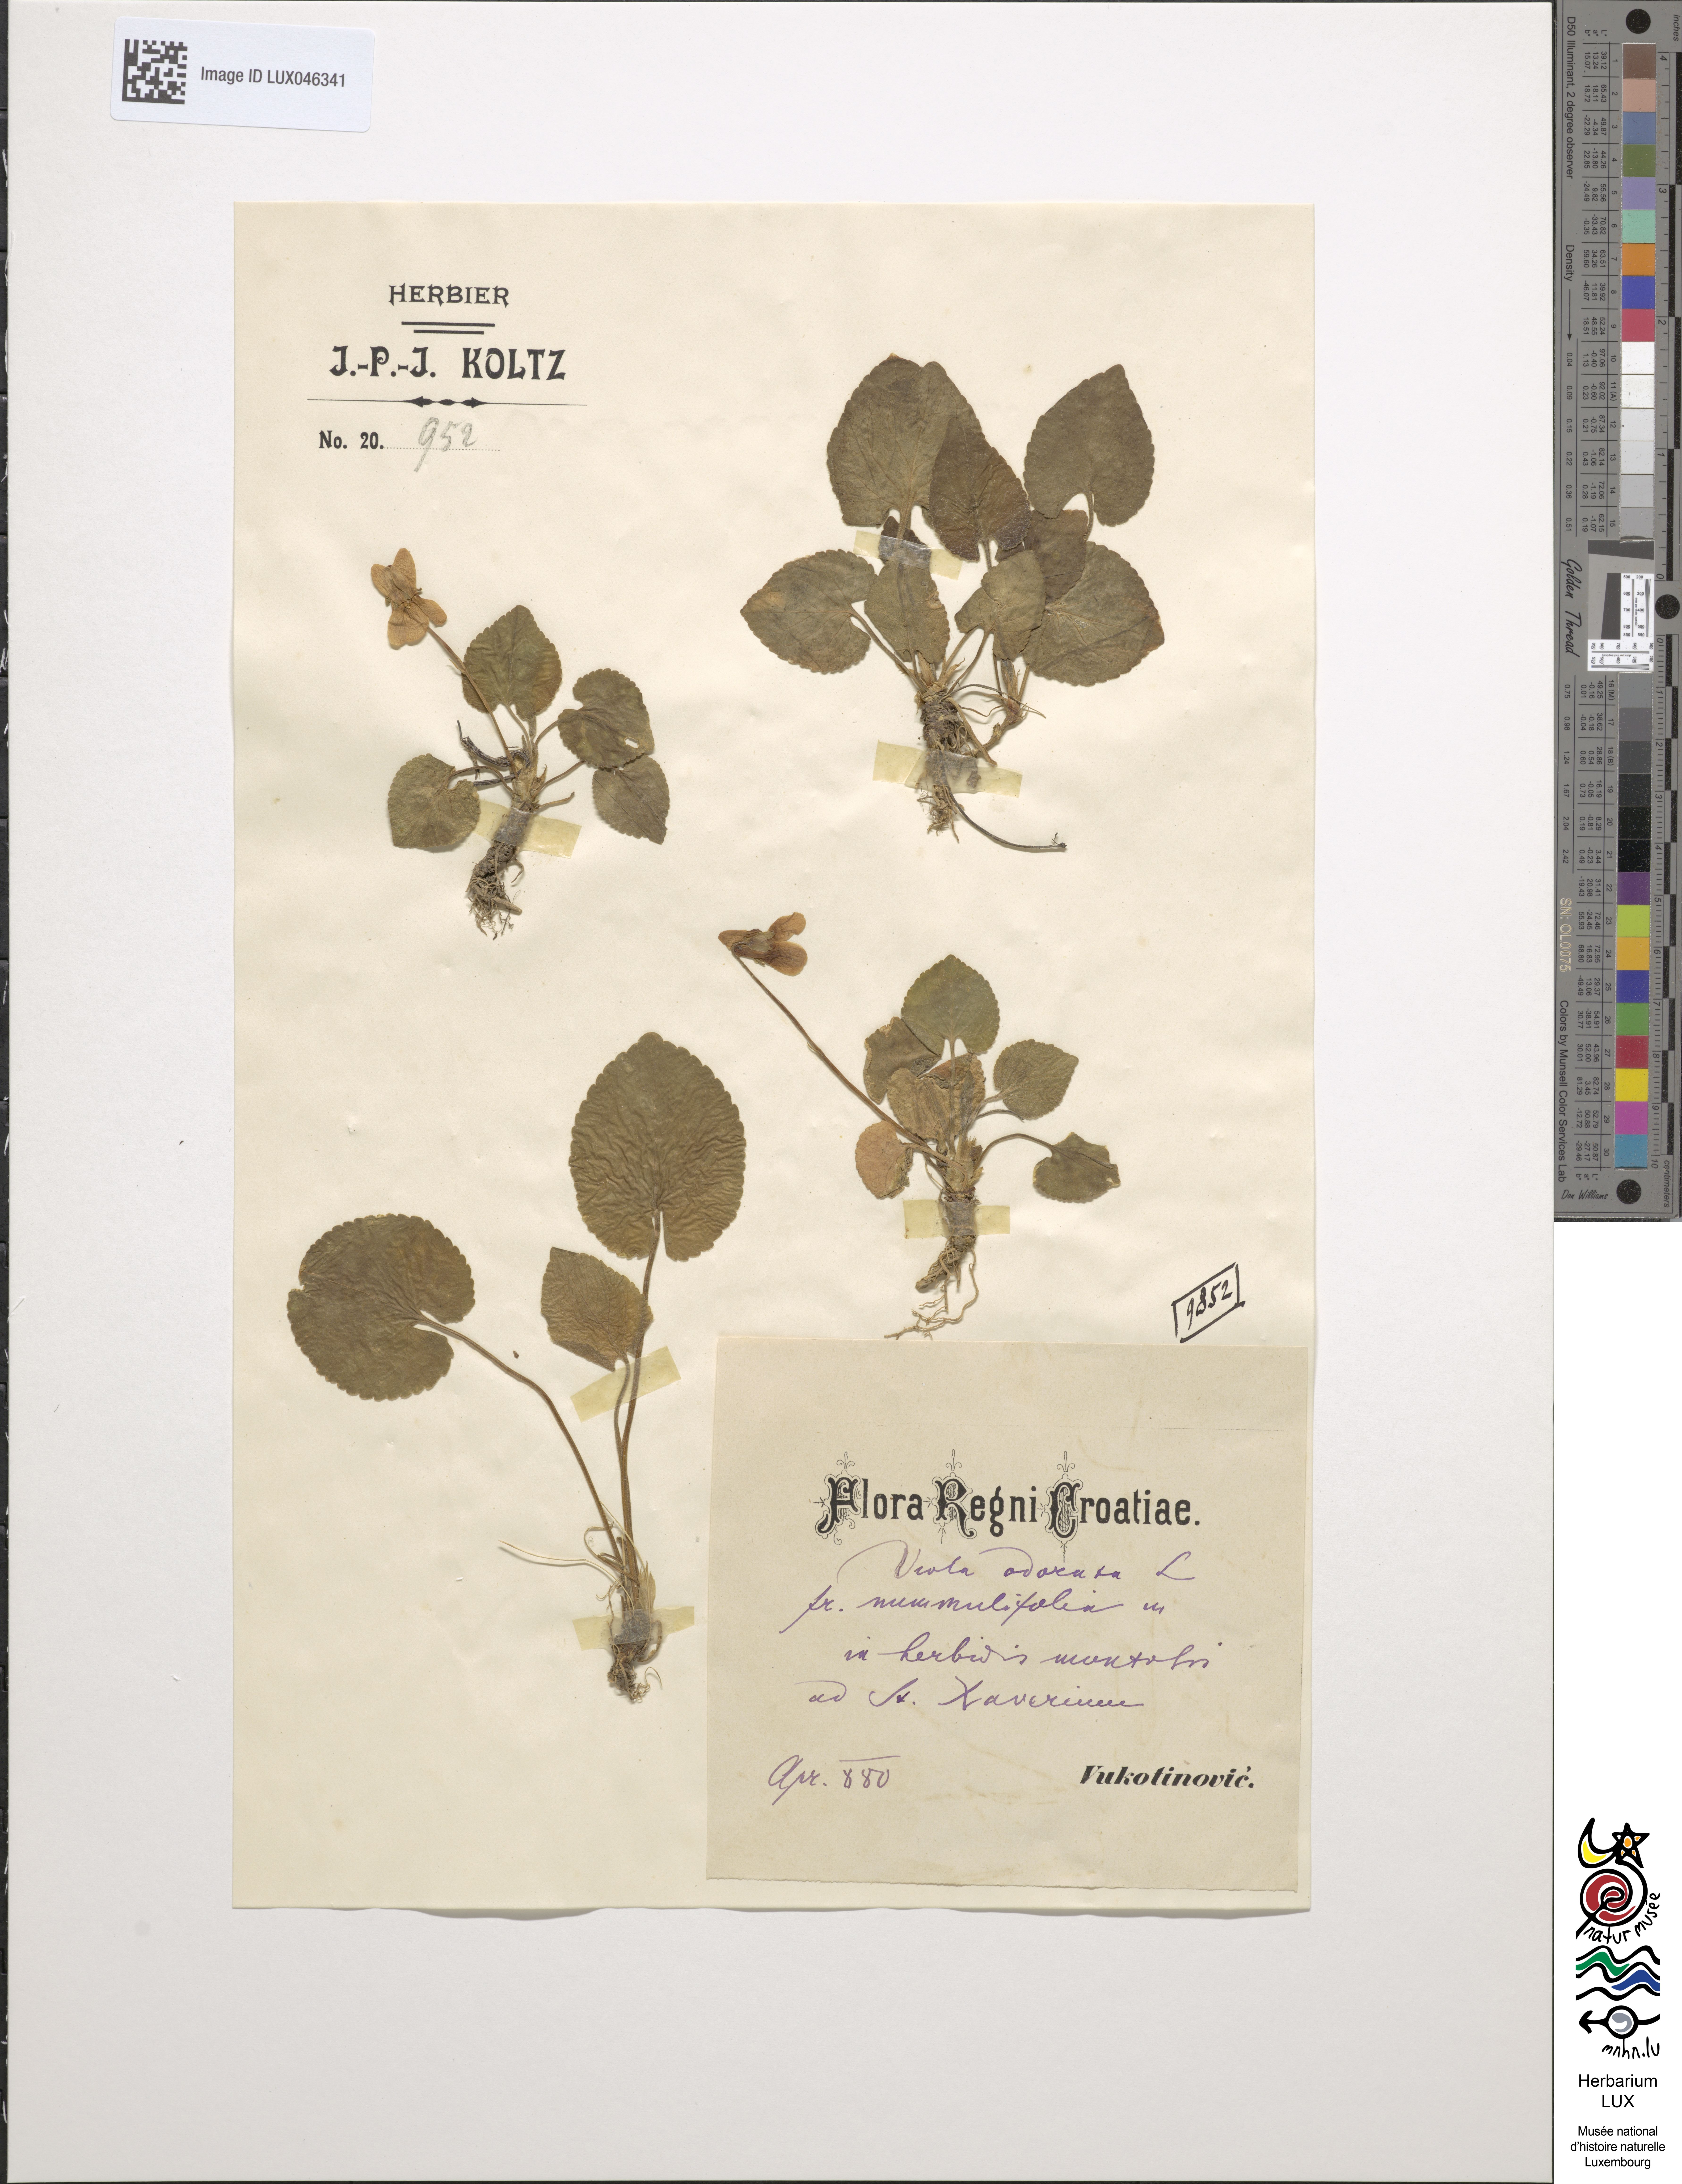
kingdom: Plantae
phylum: Tracheophyta
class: Magnoliopsida
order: Malpighiales
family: Violaceae
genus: Viola
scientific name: Viola odorata
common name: Sweet violet
